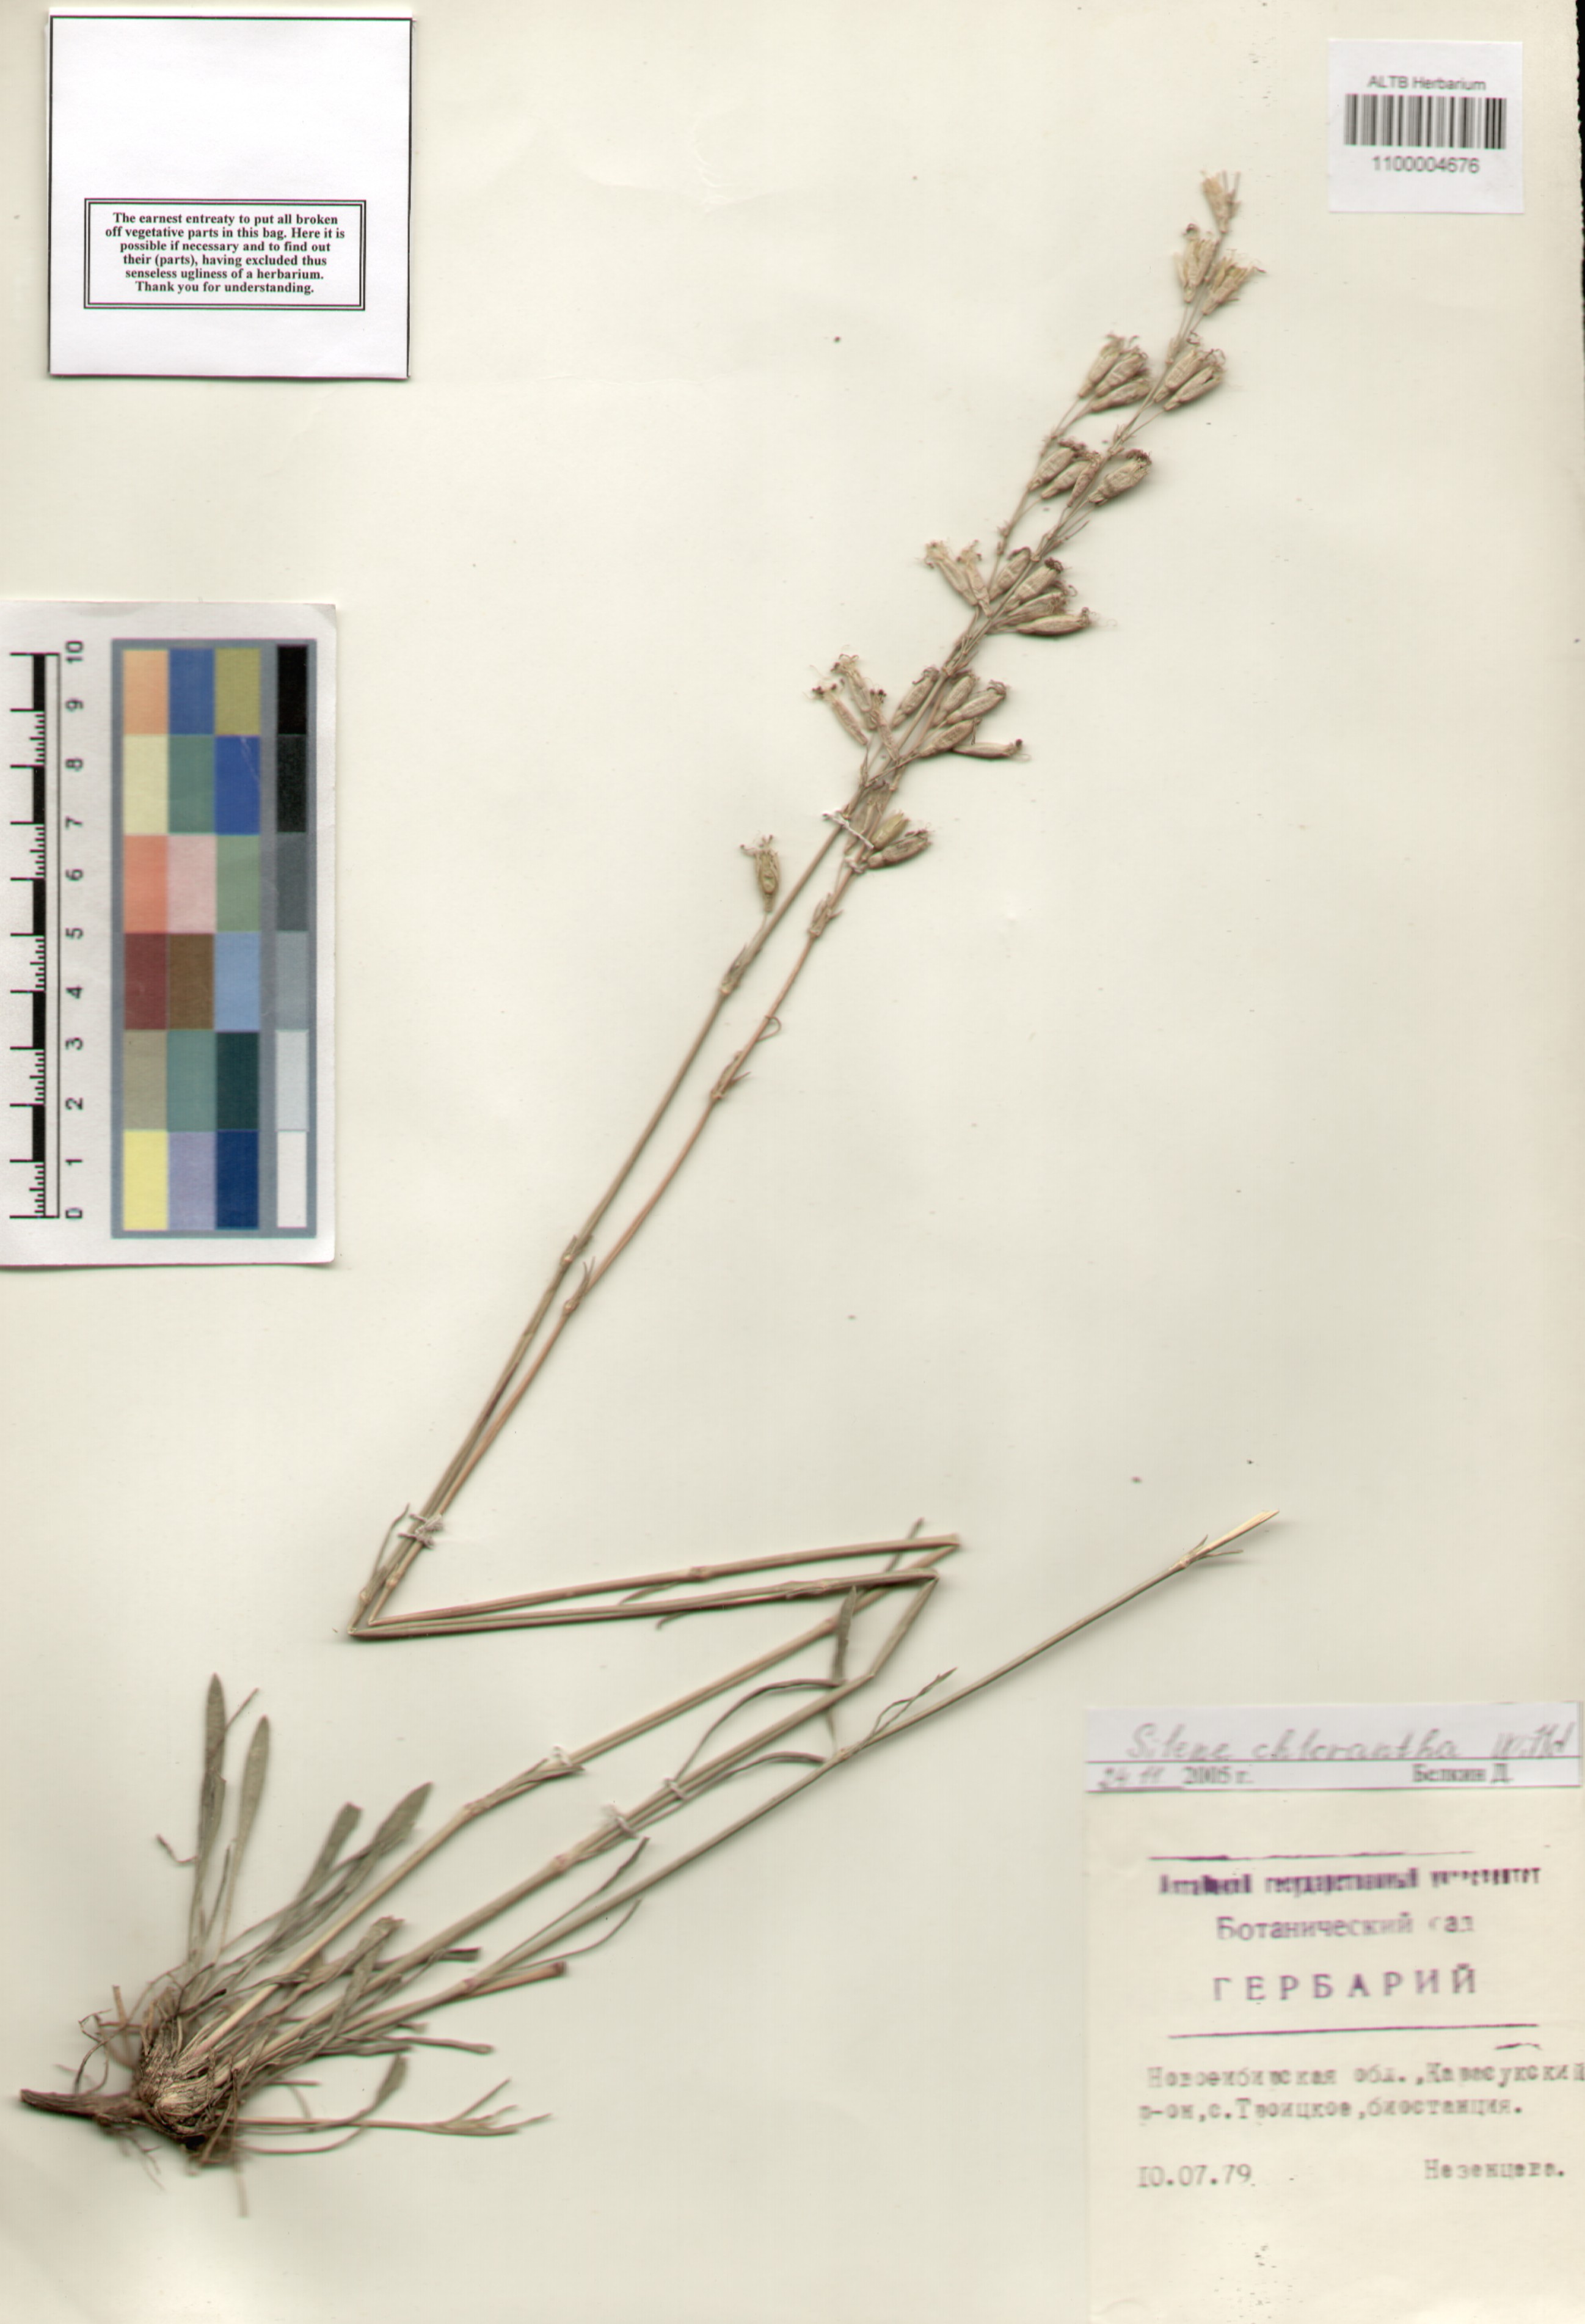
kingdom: Plantae
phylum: Tracheophyta
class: Magnoliopsida
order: Caryophyllales
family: Caryophyllaceae
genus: Silene
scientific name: Silene chlorantha
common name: Yellowgreen catchfly
